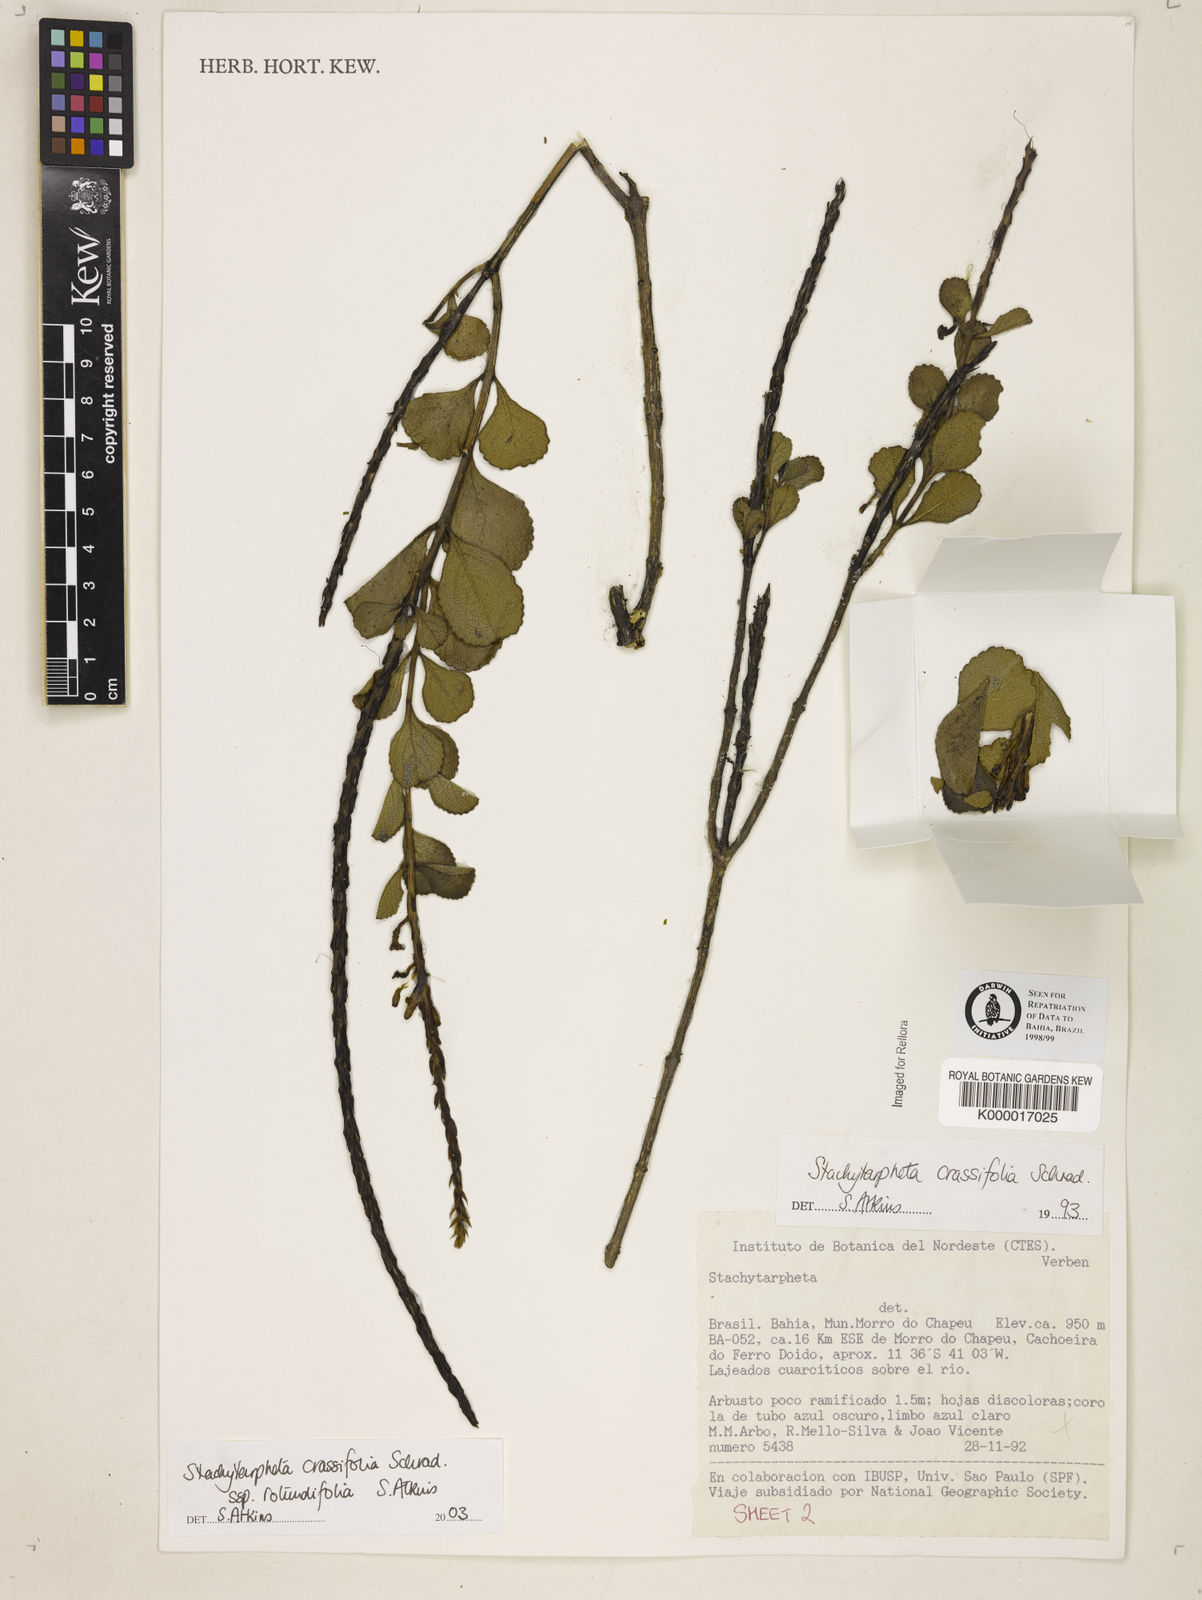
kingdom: Plantae
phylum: Tracheophyta
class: Magnoliopsida
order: Lamiales
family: Verbenaceae
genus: Stachytarpheta
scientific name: Stachytarpheta crassifolia
